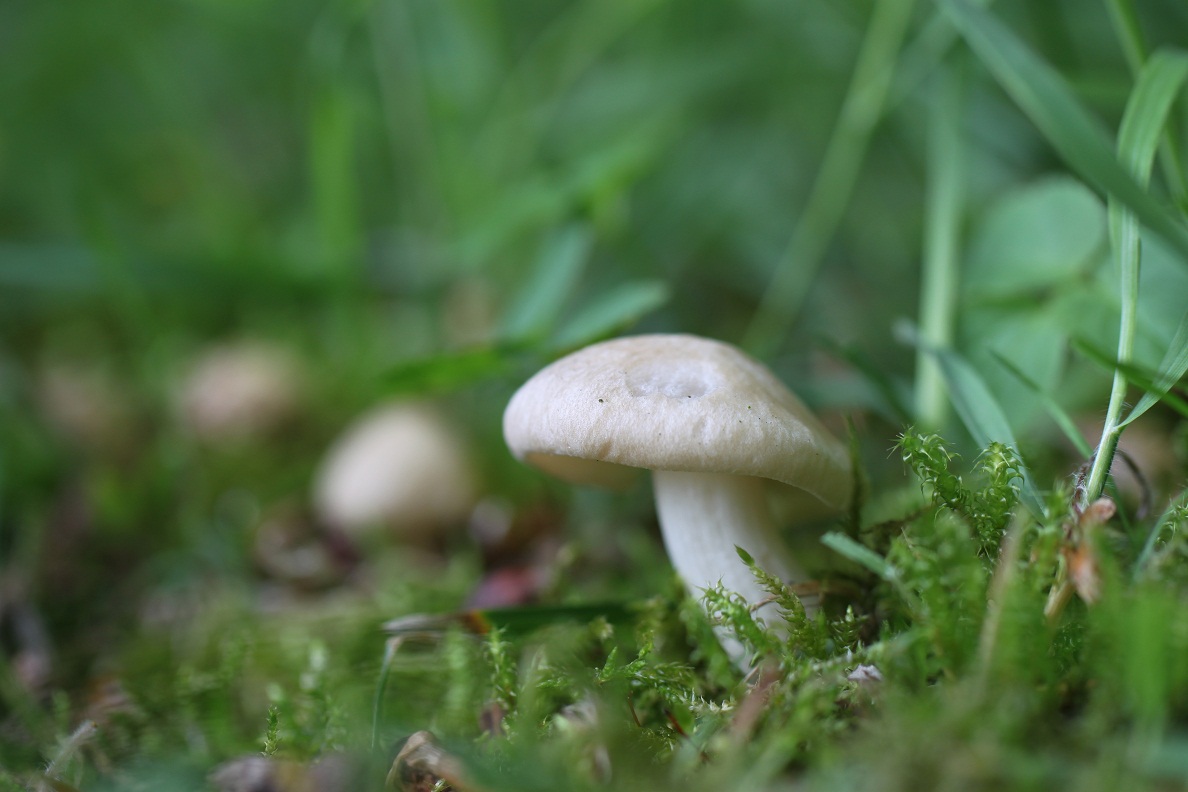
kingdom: Fungi
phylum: Basidiomycota
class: Agaricomycetes
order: Agaricales
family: Entolomataceae
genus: Entoloma
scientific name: Entoloma sepium
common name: slåen-rødblad
